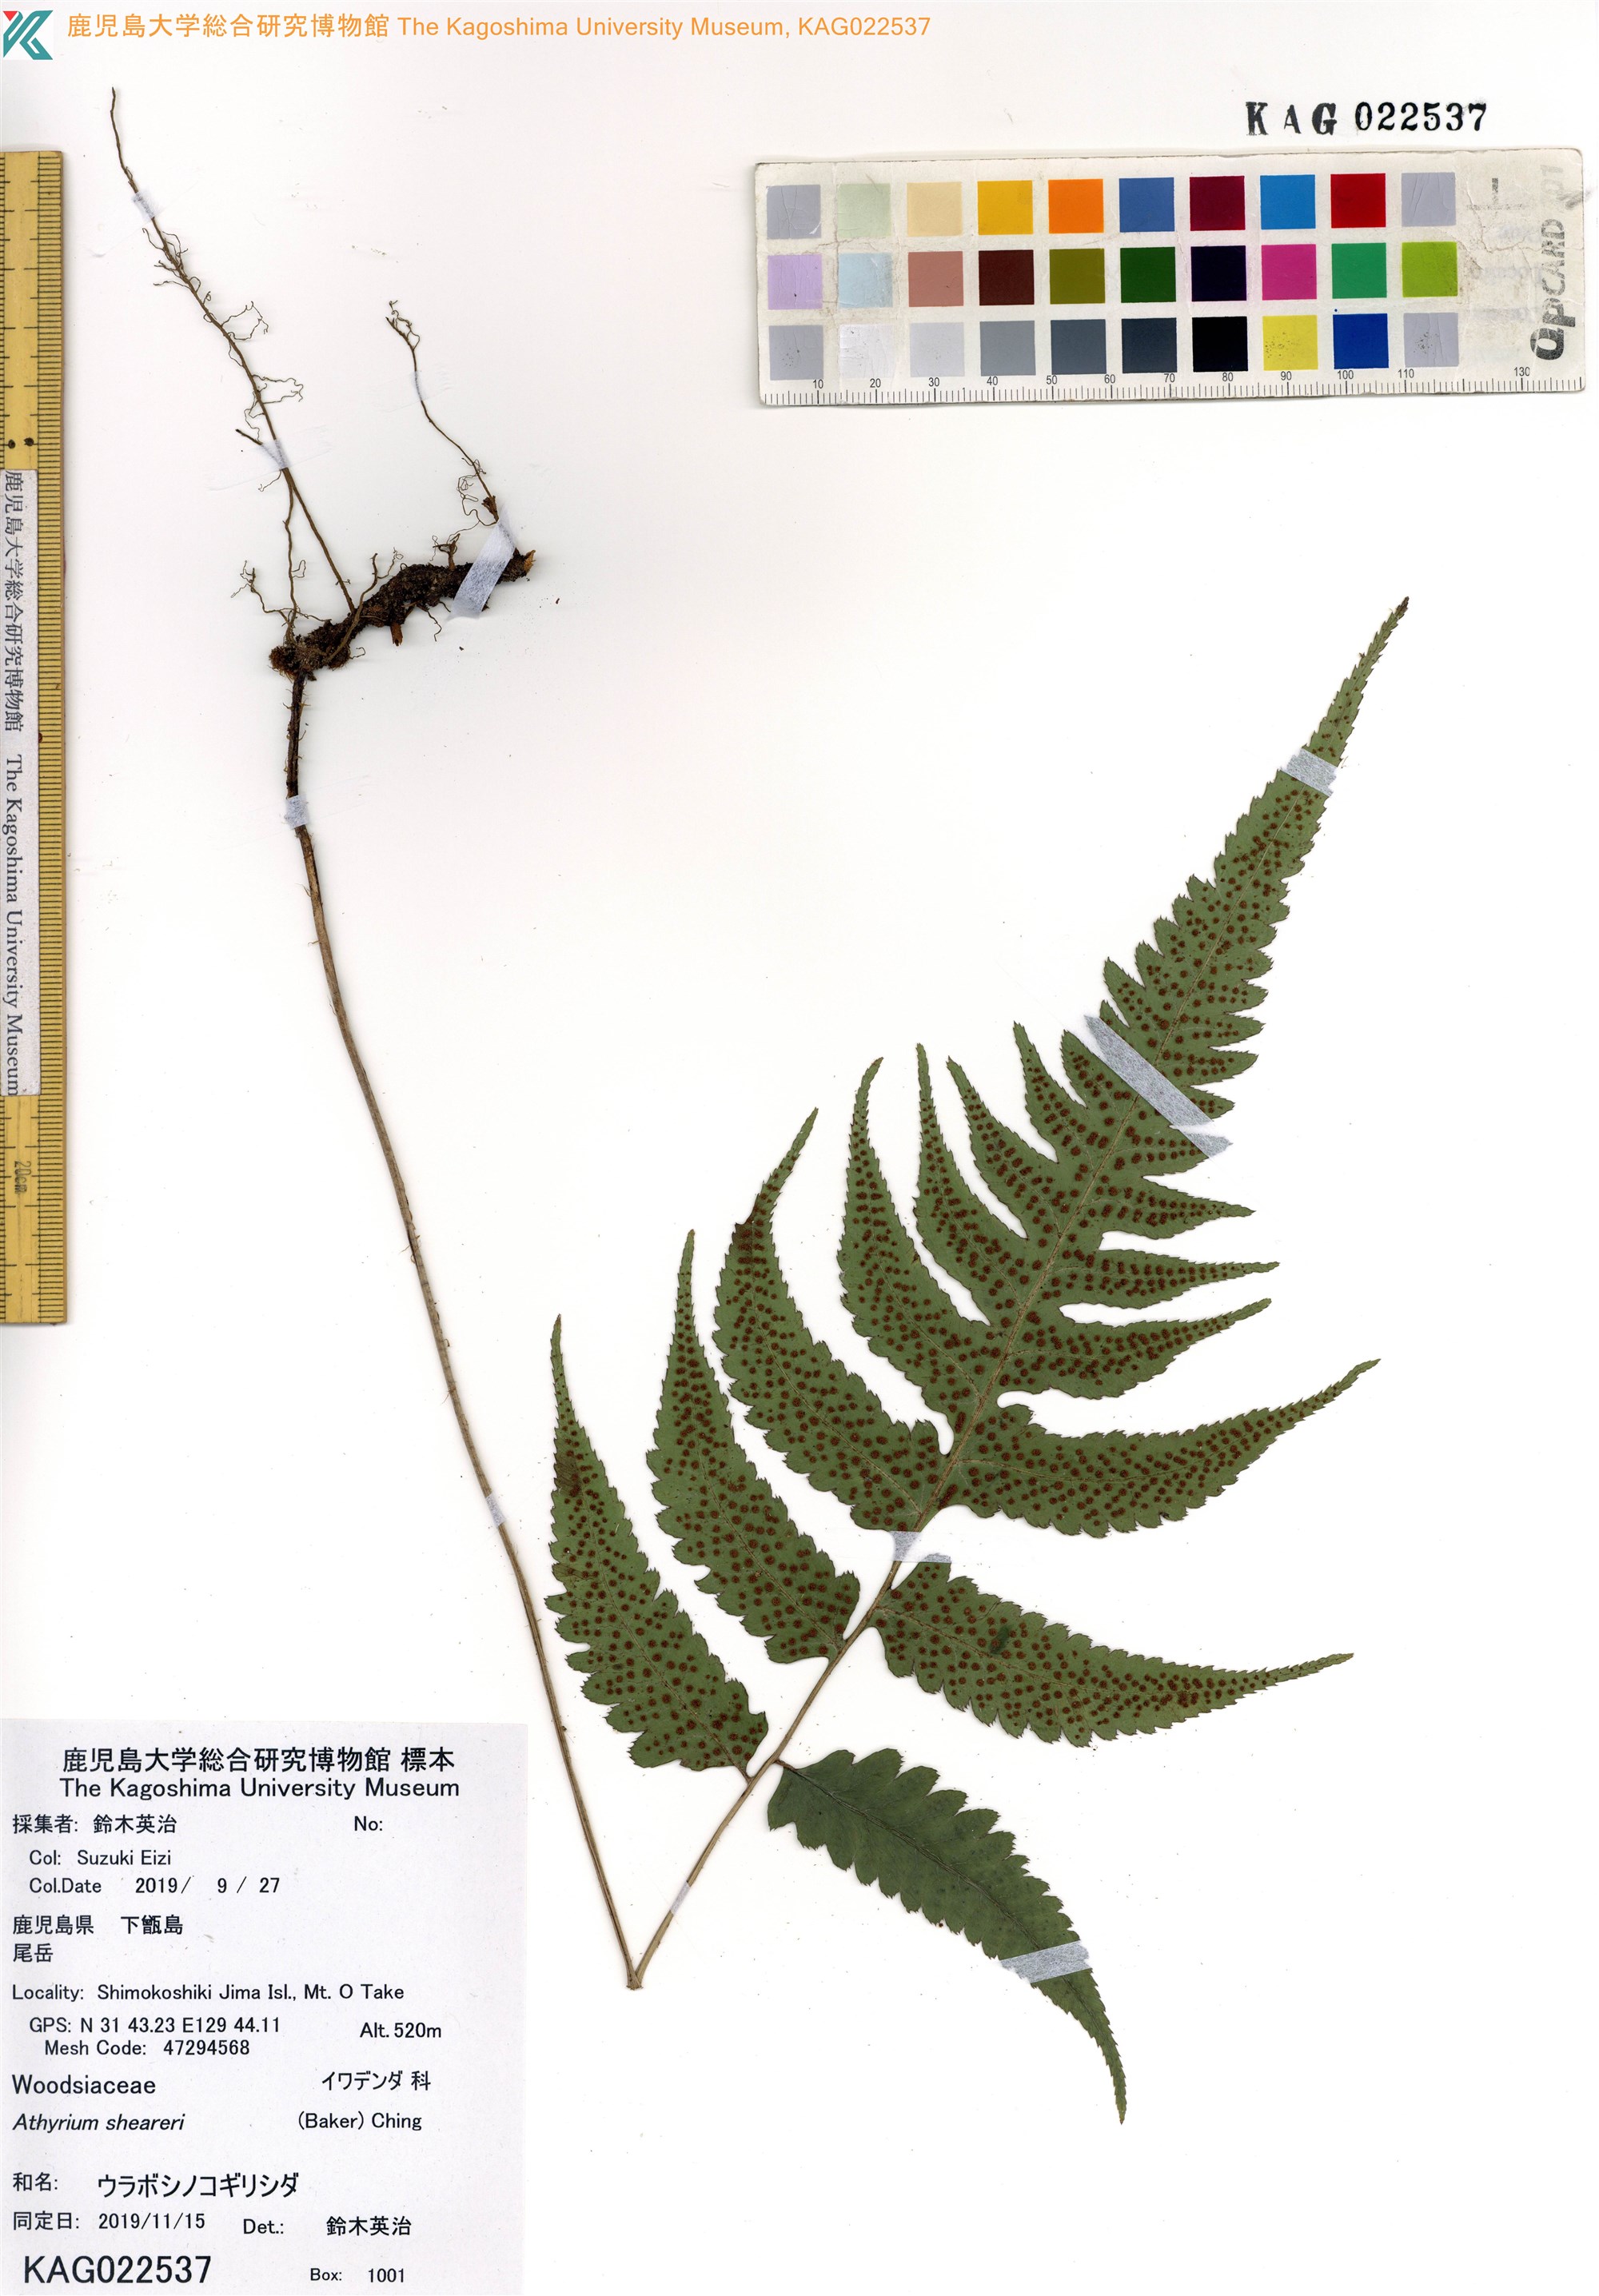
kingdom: Plantae
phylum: Tracheophyta
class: Polypodiopsida
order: Polypodiales
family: Athyriaceae
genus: Anisocampium
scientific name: Anisocampium sheareri
